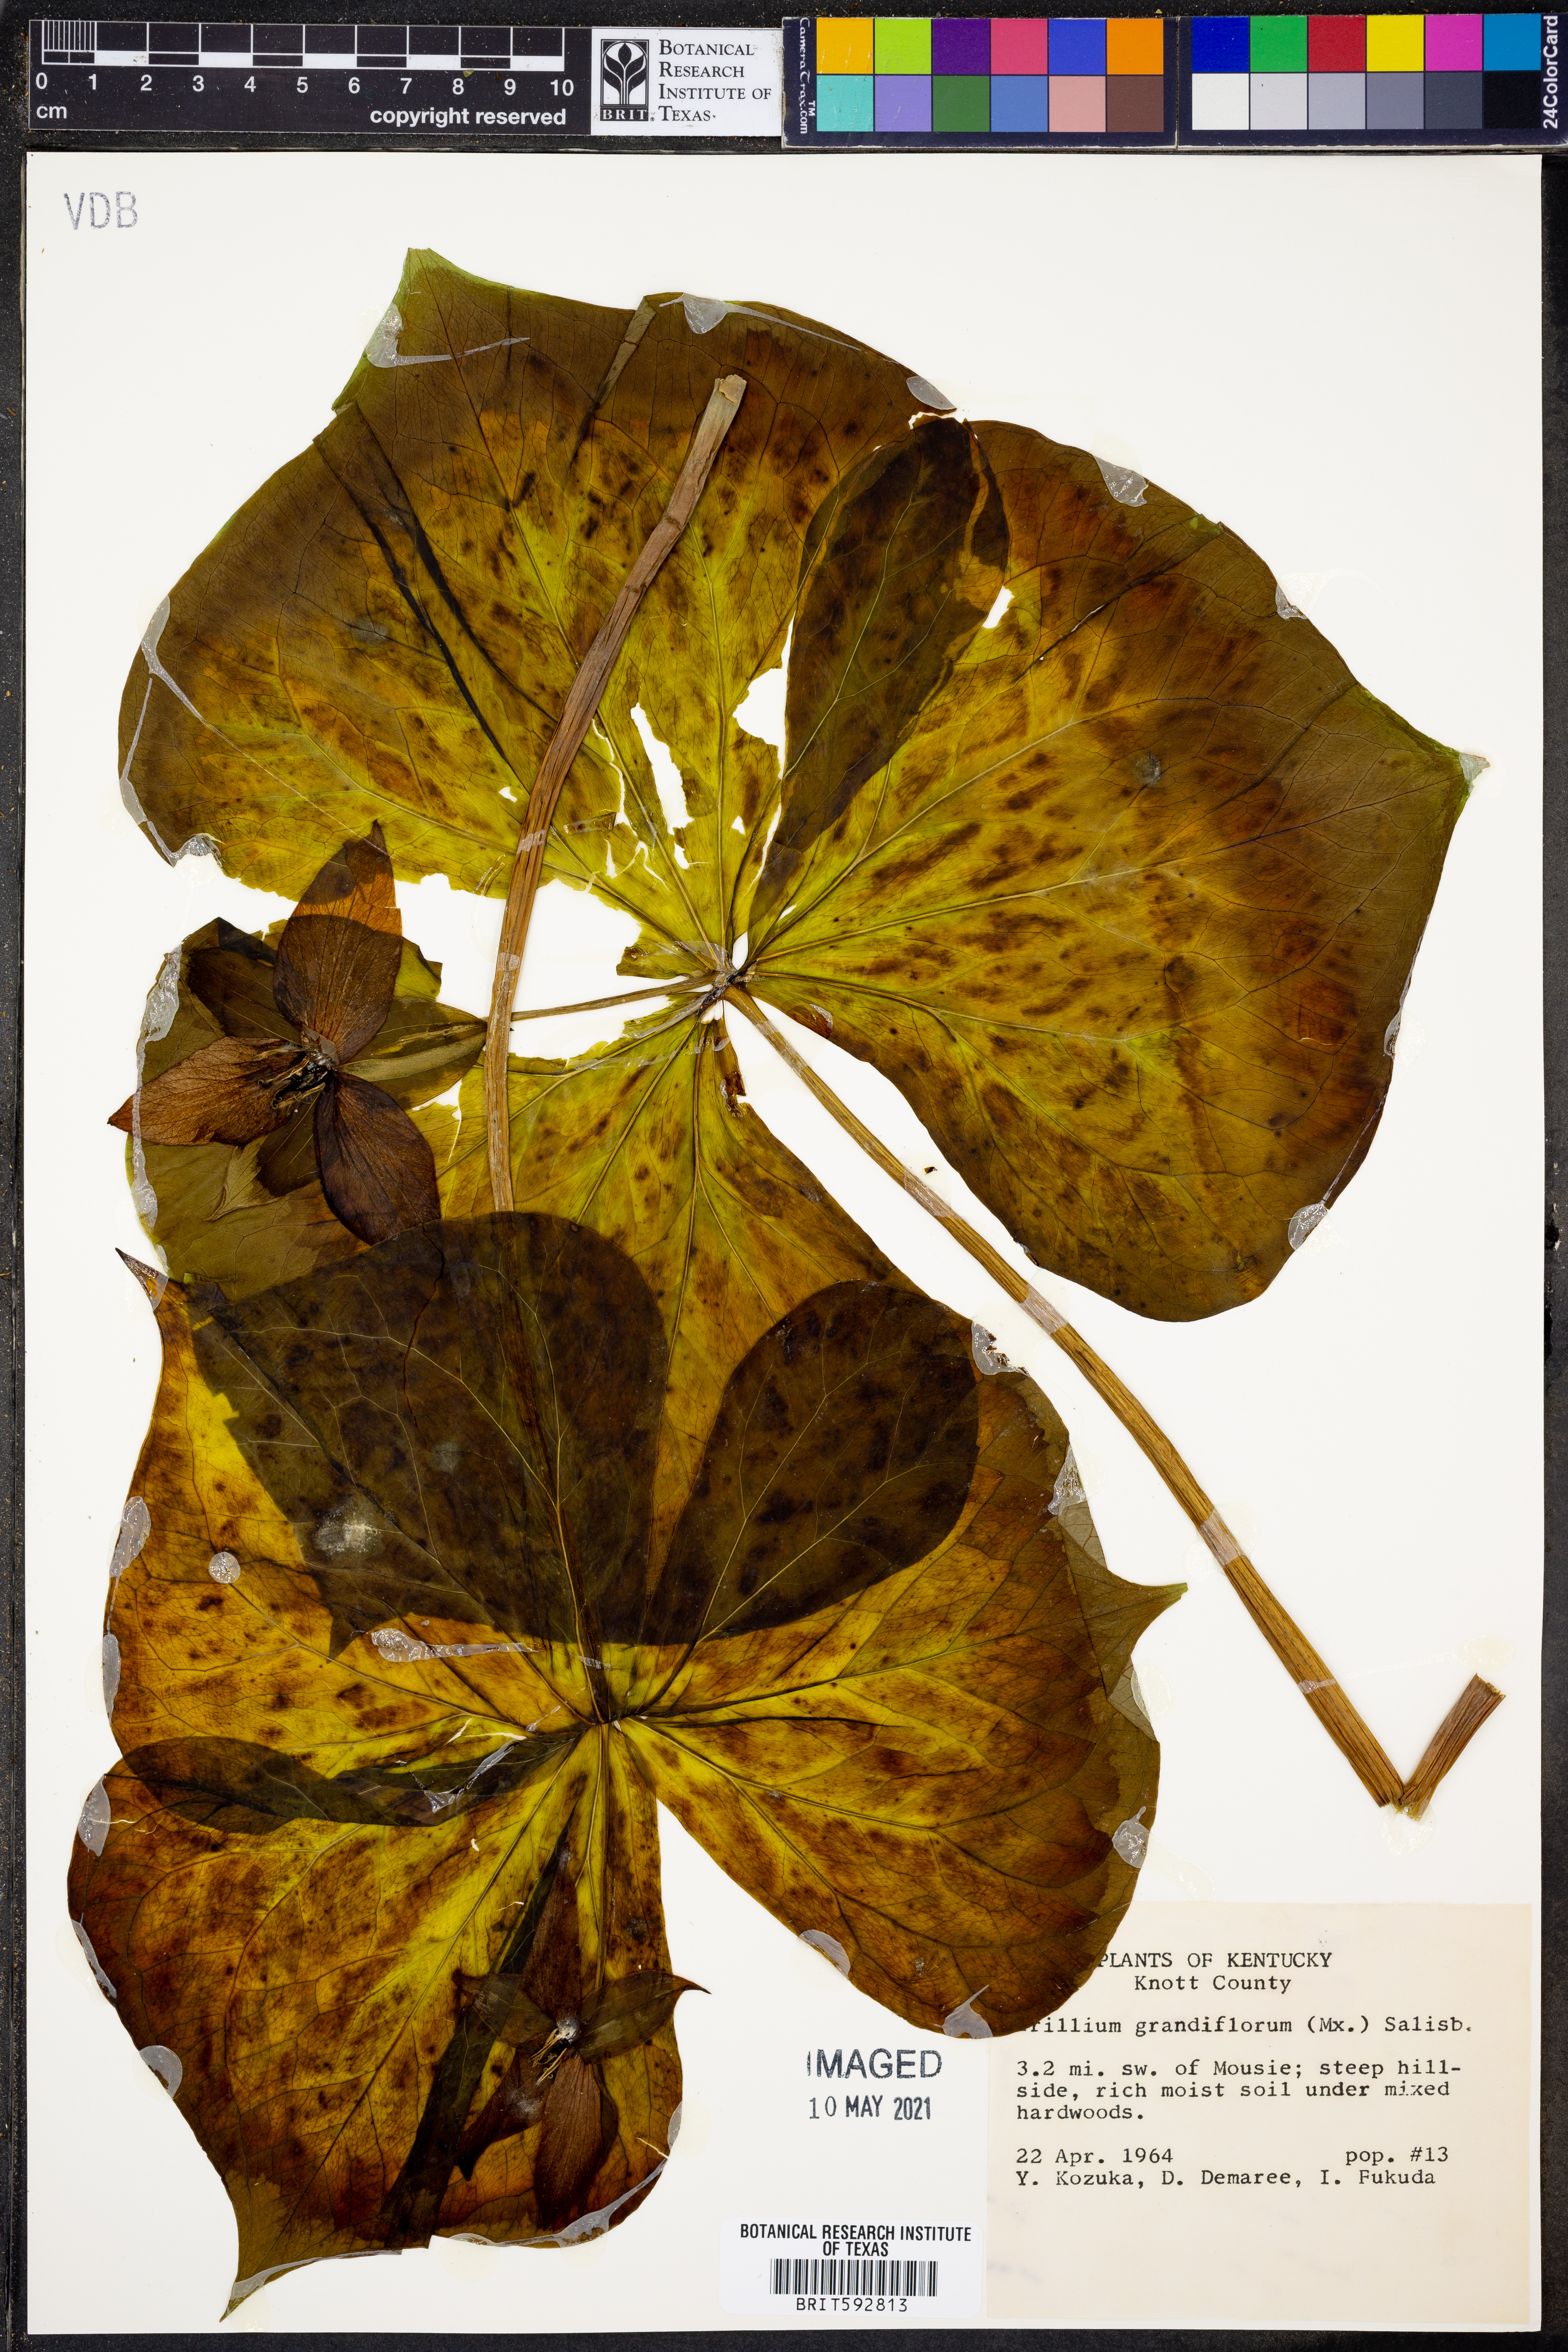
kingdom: Plantae
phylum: Tracheophyta
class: Liliopsida
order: Liliales
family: Melanthiaceae
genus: Trillium
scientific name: Trillium grandiflorum
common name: Great white trillium
